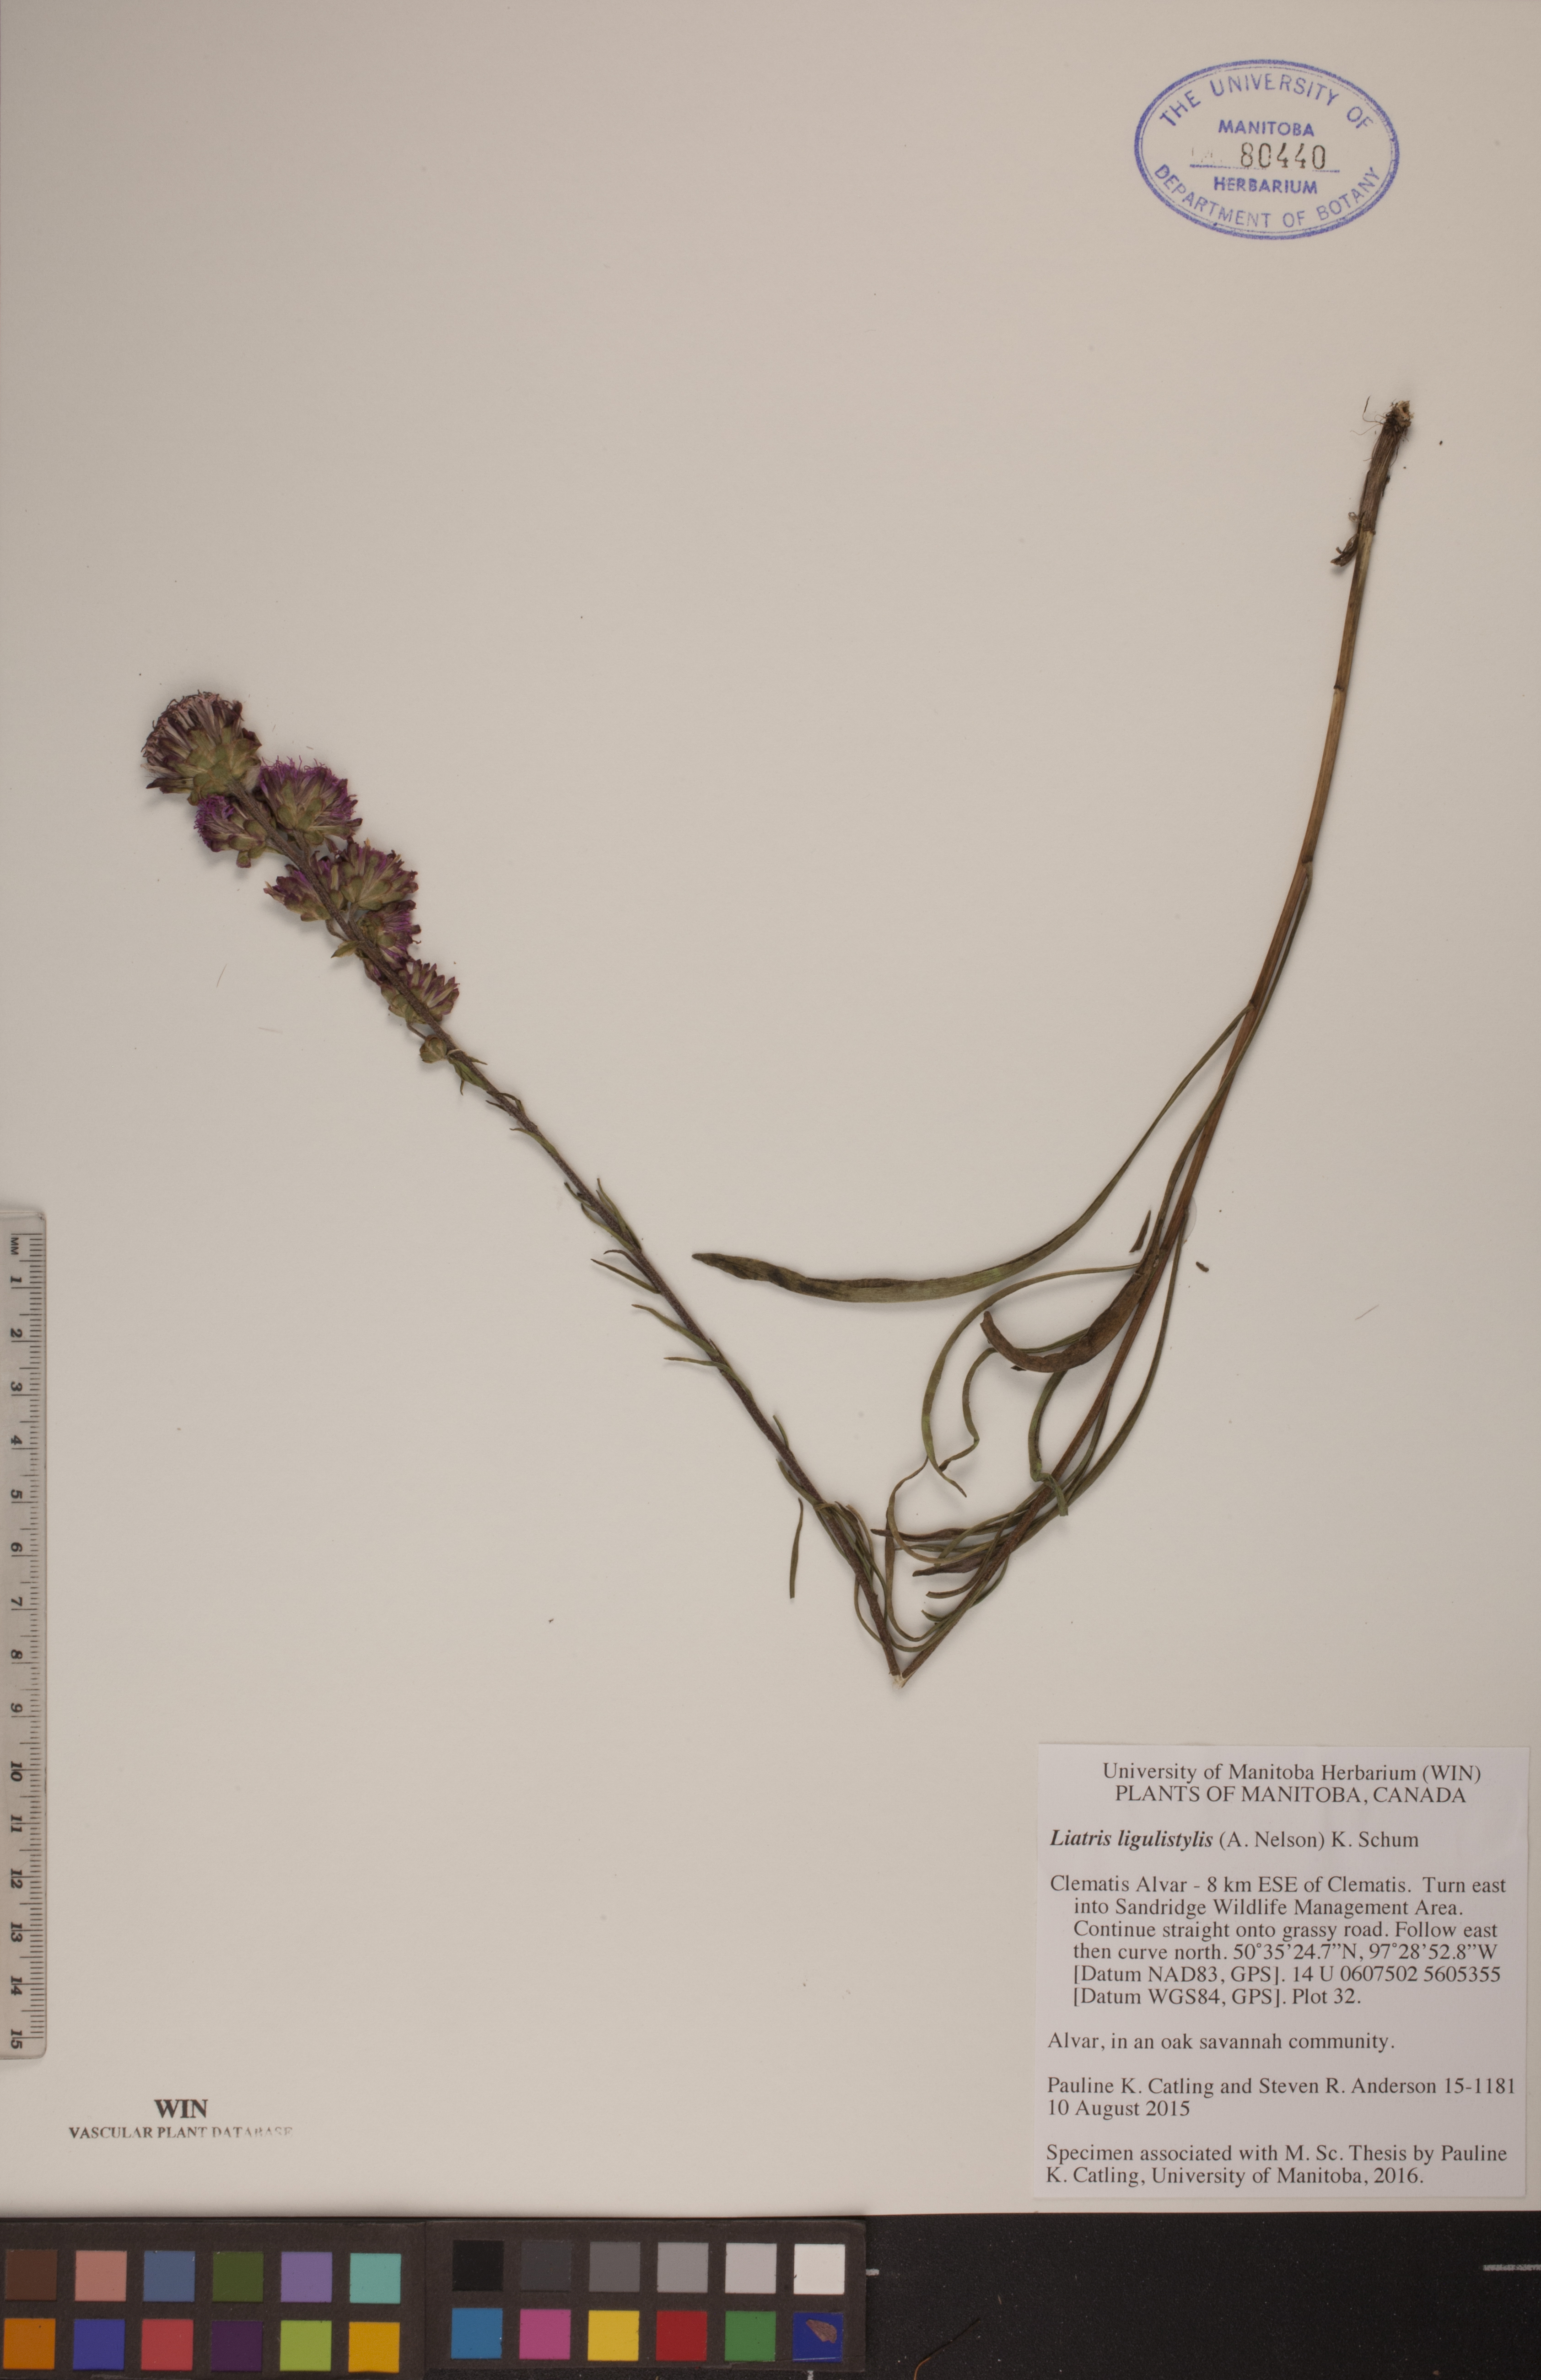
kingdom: Plantae
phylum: Tracheophyta
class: Magnoliopsida
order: Asterales
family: Asteraceae
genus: Liatris
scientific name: Liatris ligulistylis
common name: Northern plains gayfeather
